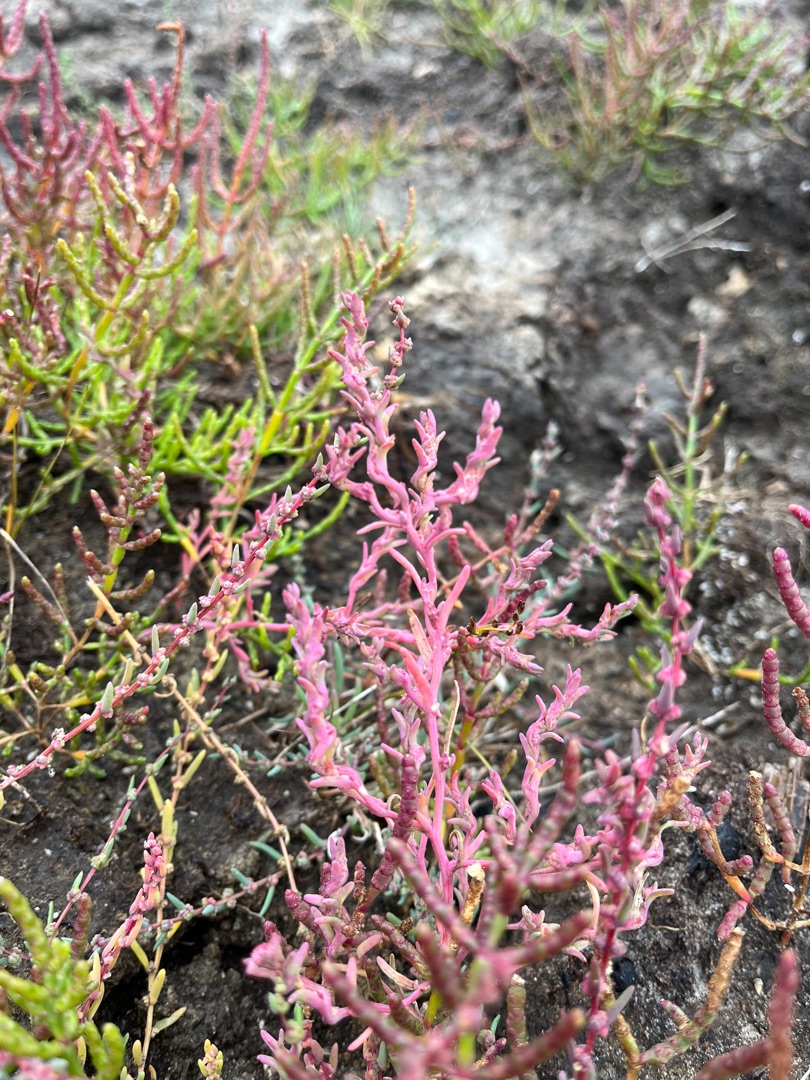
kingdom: Plantae
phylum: Tracheophyta
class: Magnoliopsida
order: Caryophyllales
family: Amaranthaceae
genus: Spirobassia
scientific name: Spirobassia hirsuta
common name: Tangurt
